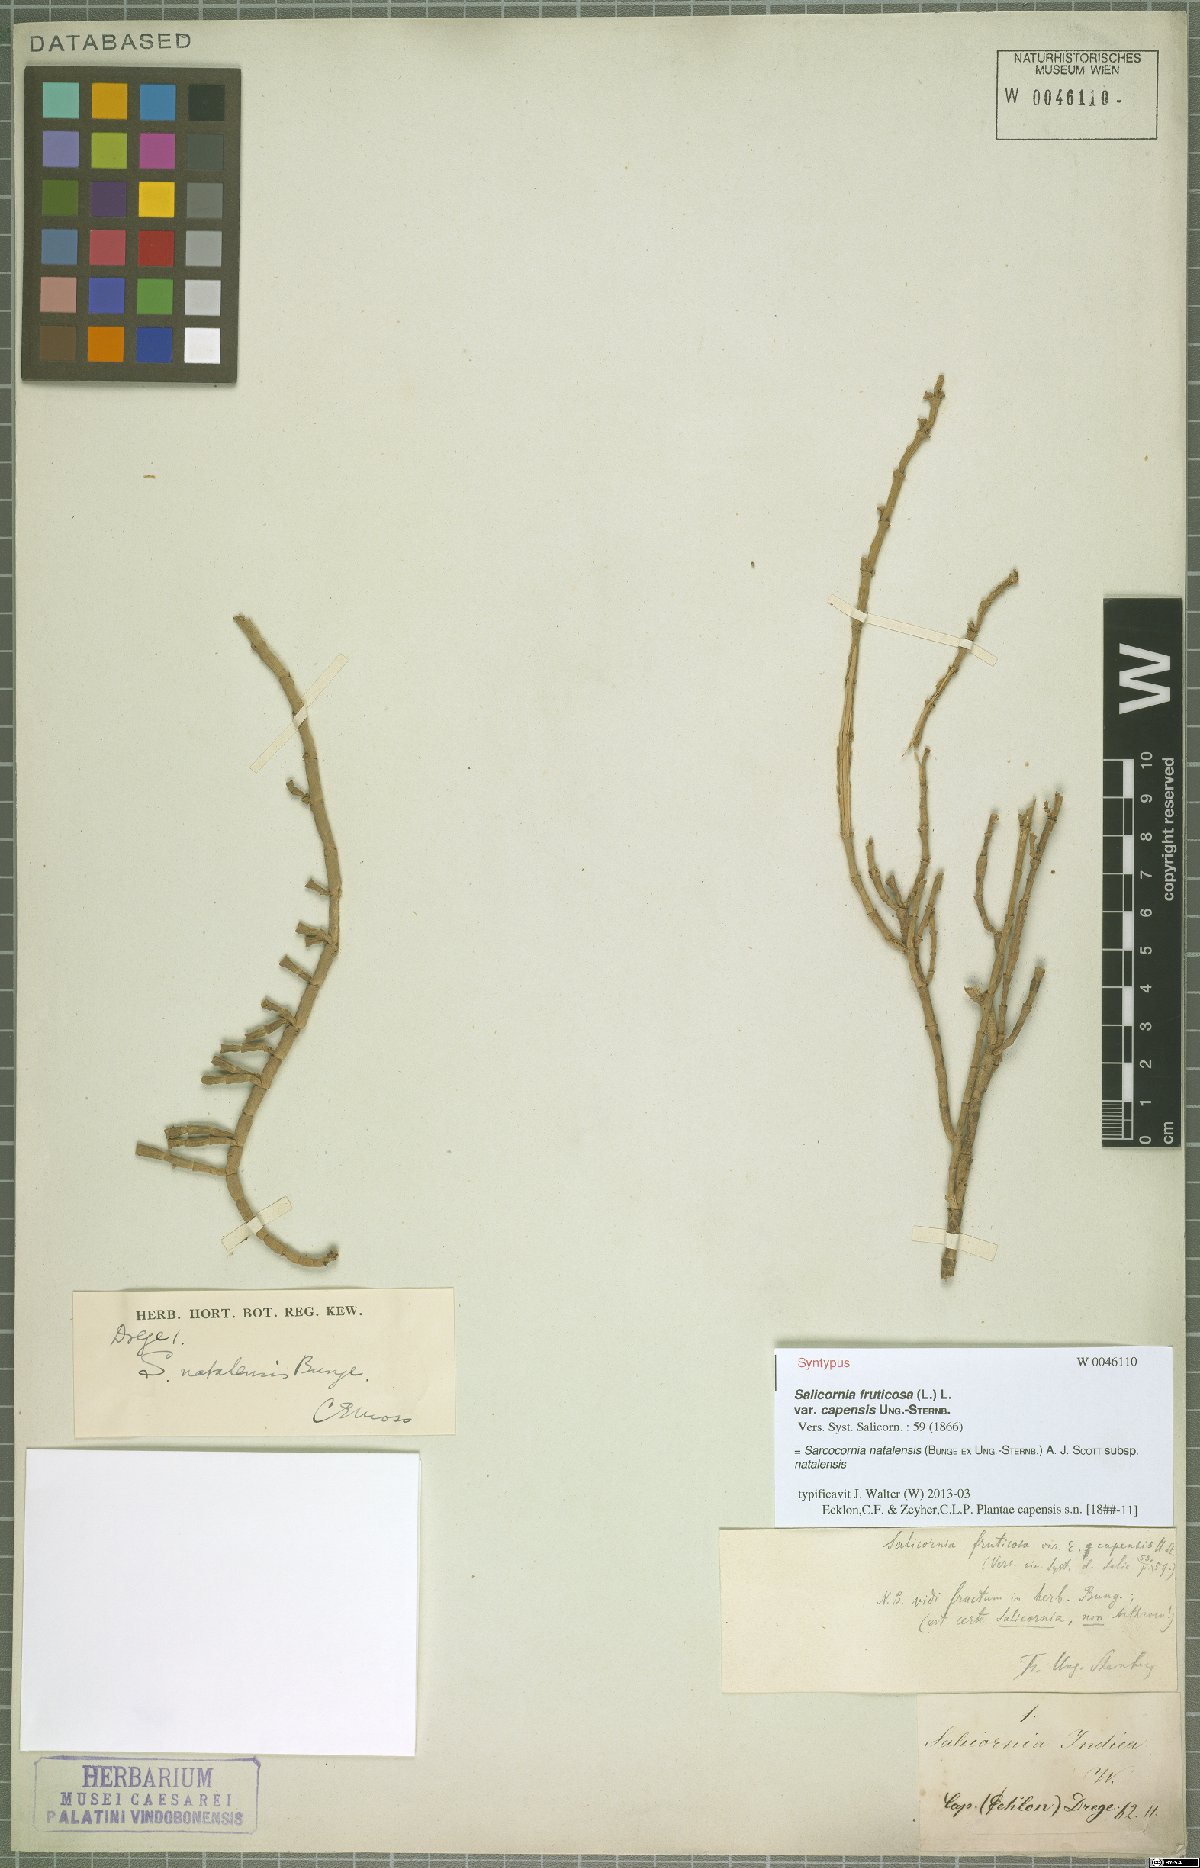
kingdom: Plantae
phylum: Tracheophyta
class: Magnoliopsida
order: Caryophyllales
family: Amaranthaceae
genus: Salicornia
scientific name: Salicornia natalensis
